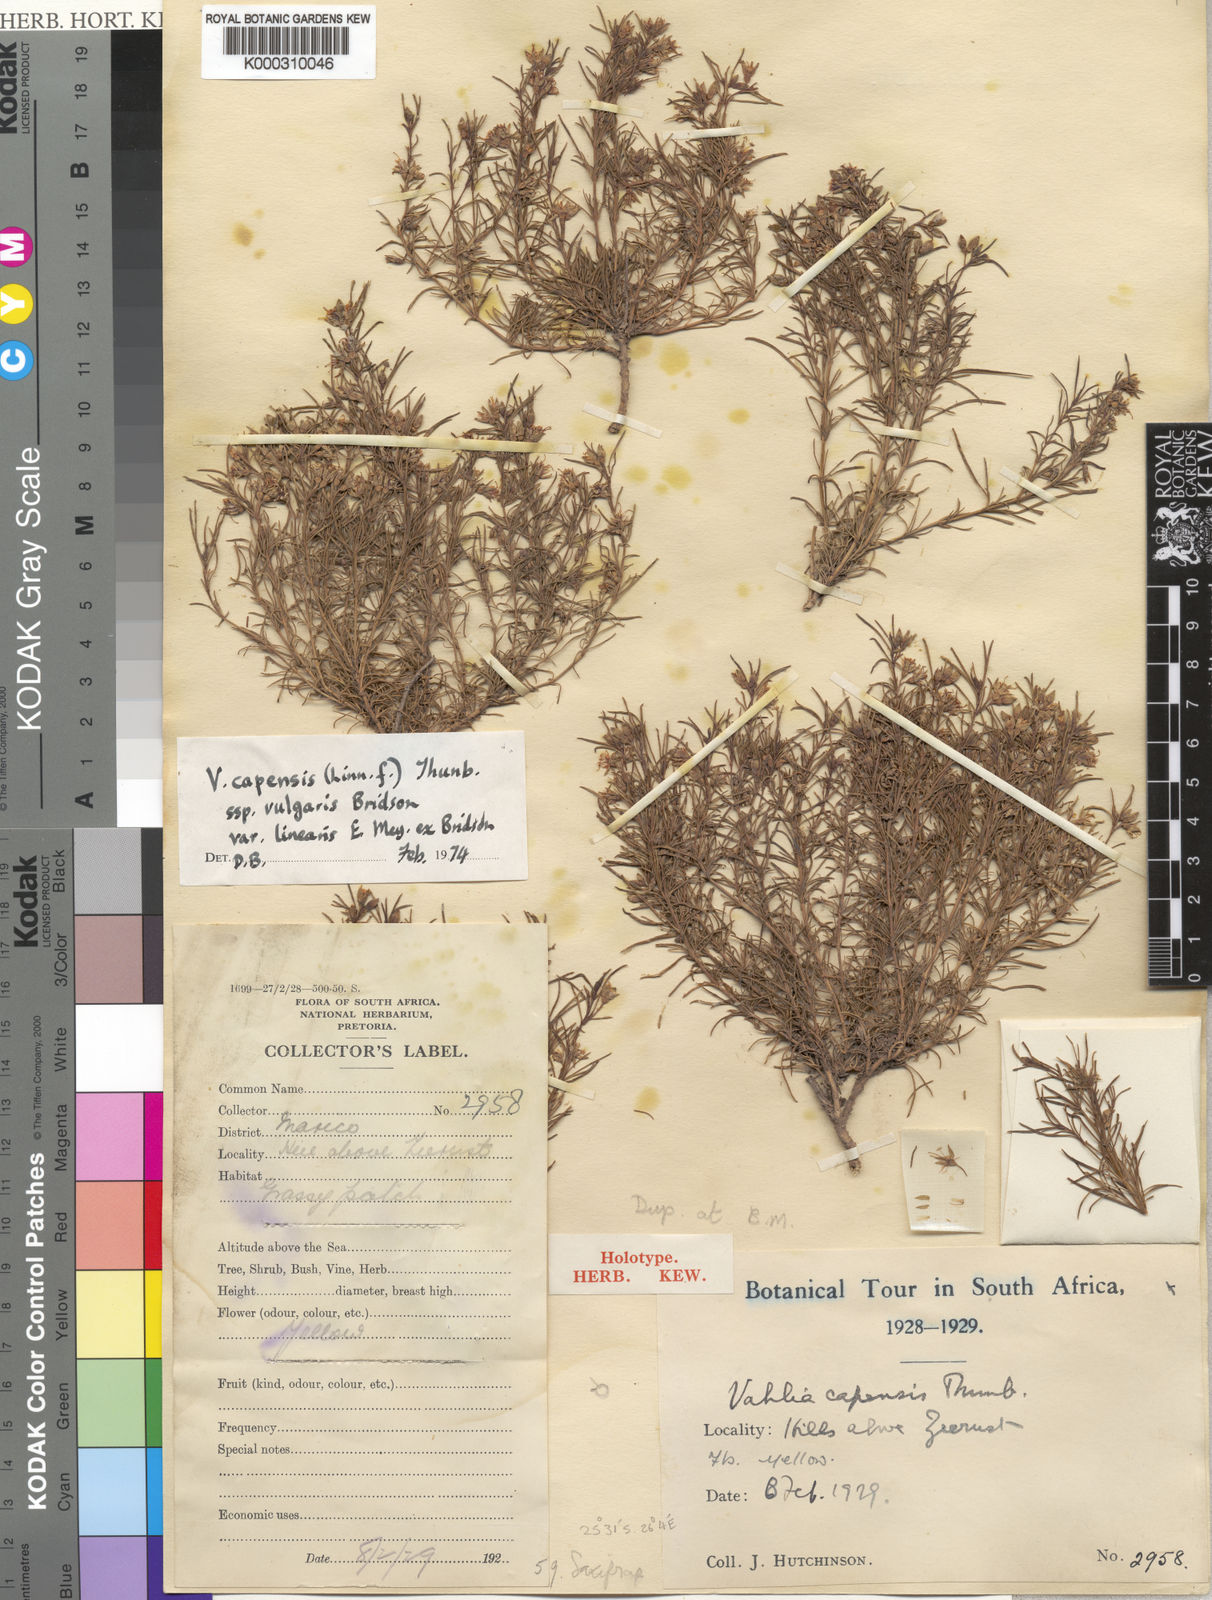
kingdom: Plantae
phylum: Tracheophyta
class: Magnoliopsida
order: Vahliales
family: Vahliaceae
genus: Vahlia
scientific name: Vahlia capensis
